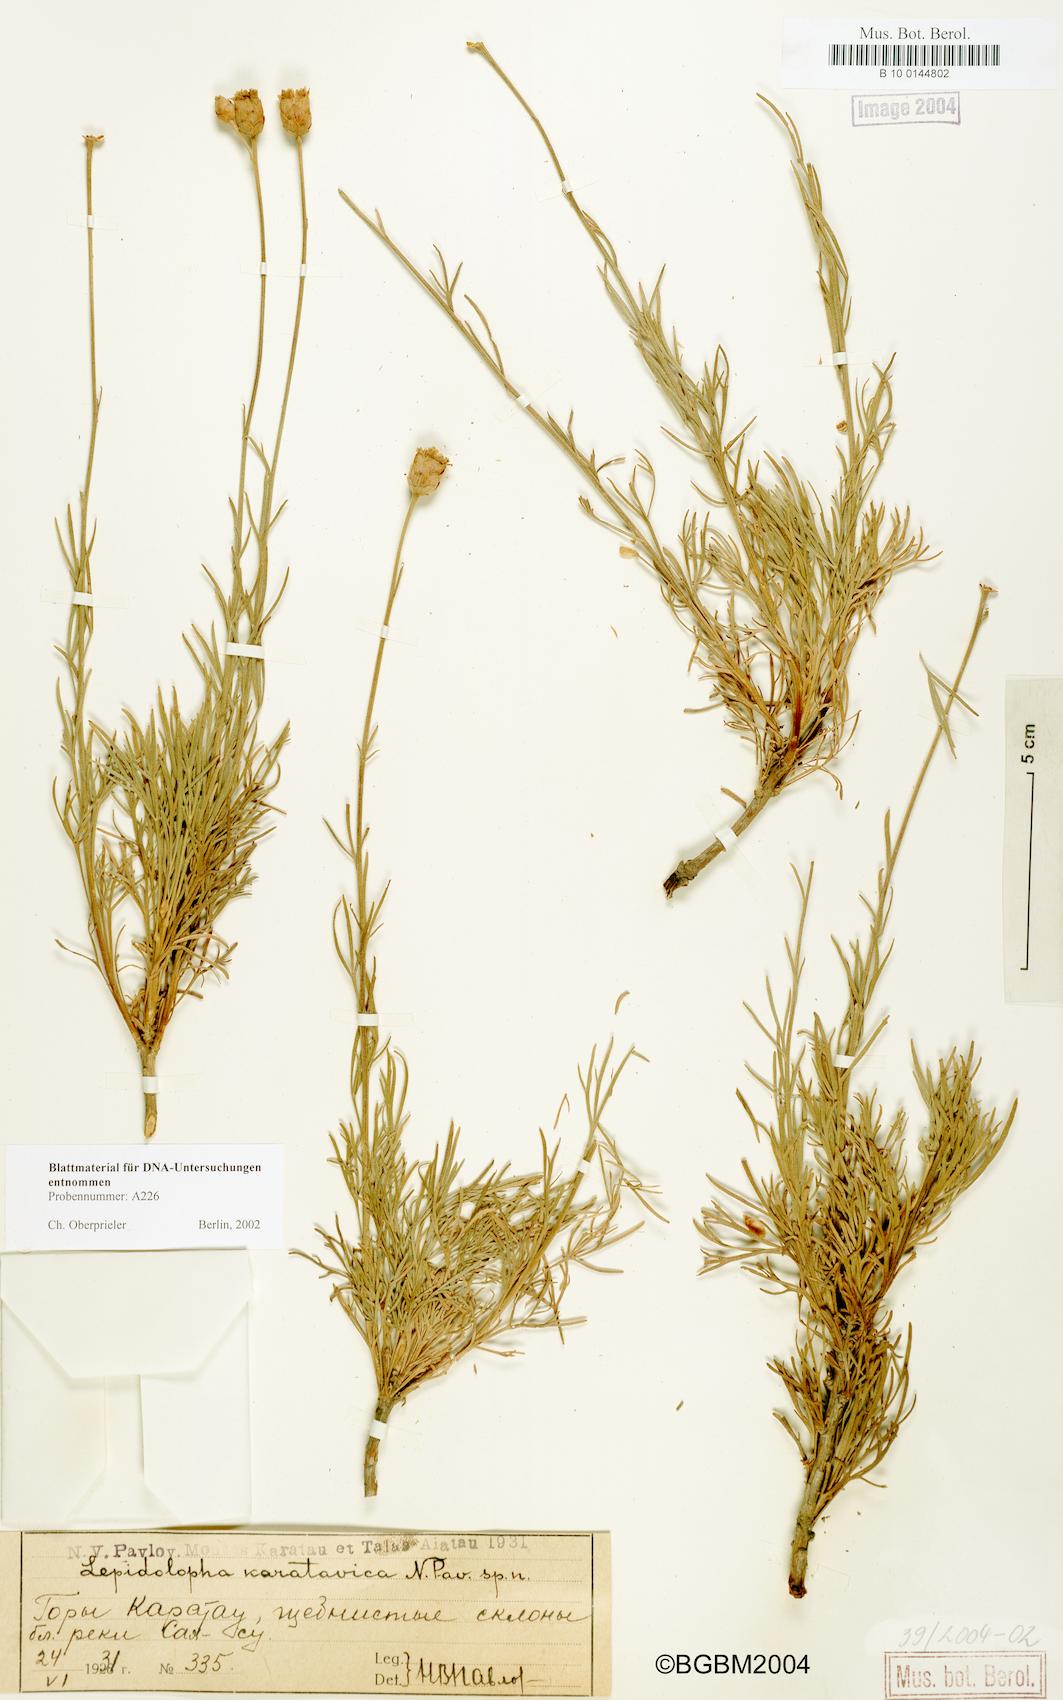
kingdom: Plantae
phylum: Tracheophyta
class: Magnoliopsida
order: Asterales
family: Asteraceae
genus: Lepidolopha
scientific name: Lepidolopha karatavica
